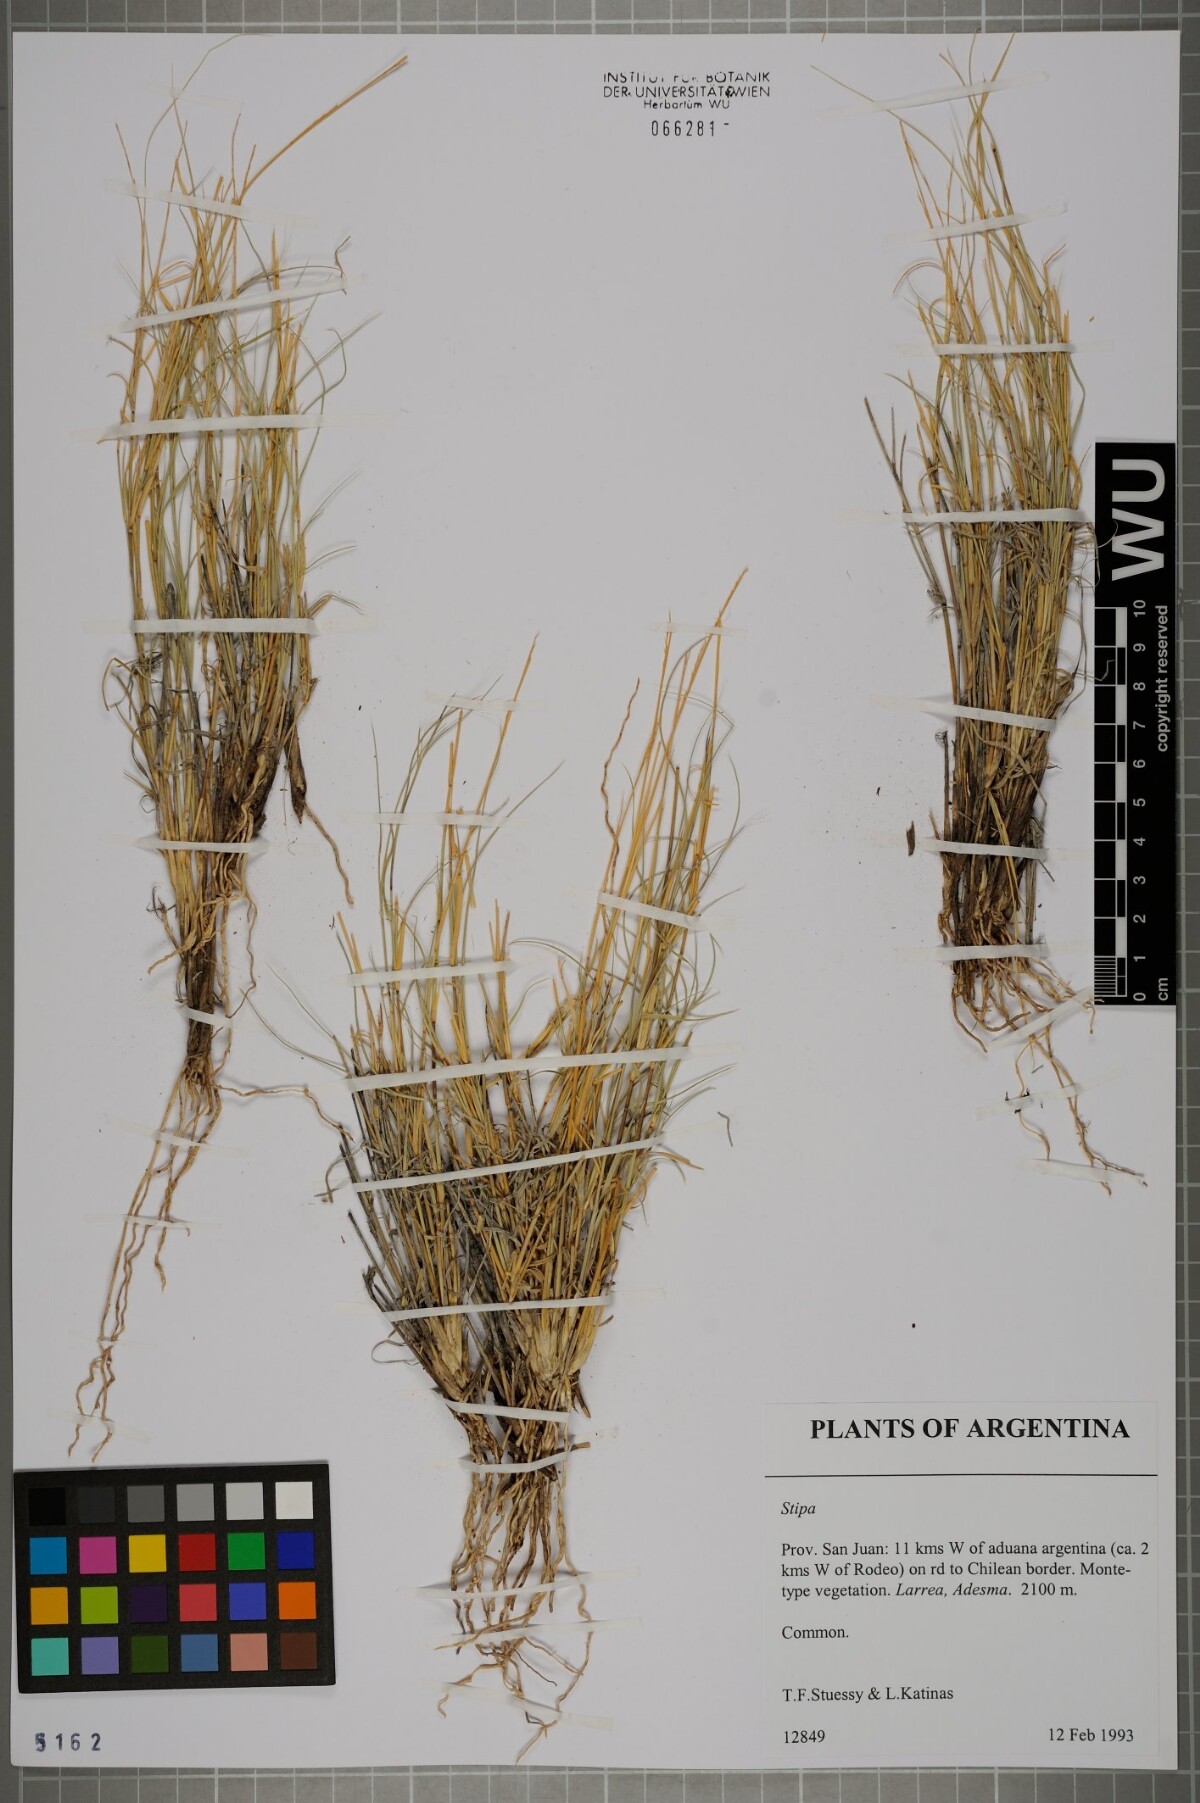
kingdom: Plantae
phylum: Tracheophyta
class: Liliopsida
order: Poales
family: Poaceae
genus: Stipa
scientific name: Stipa
